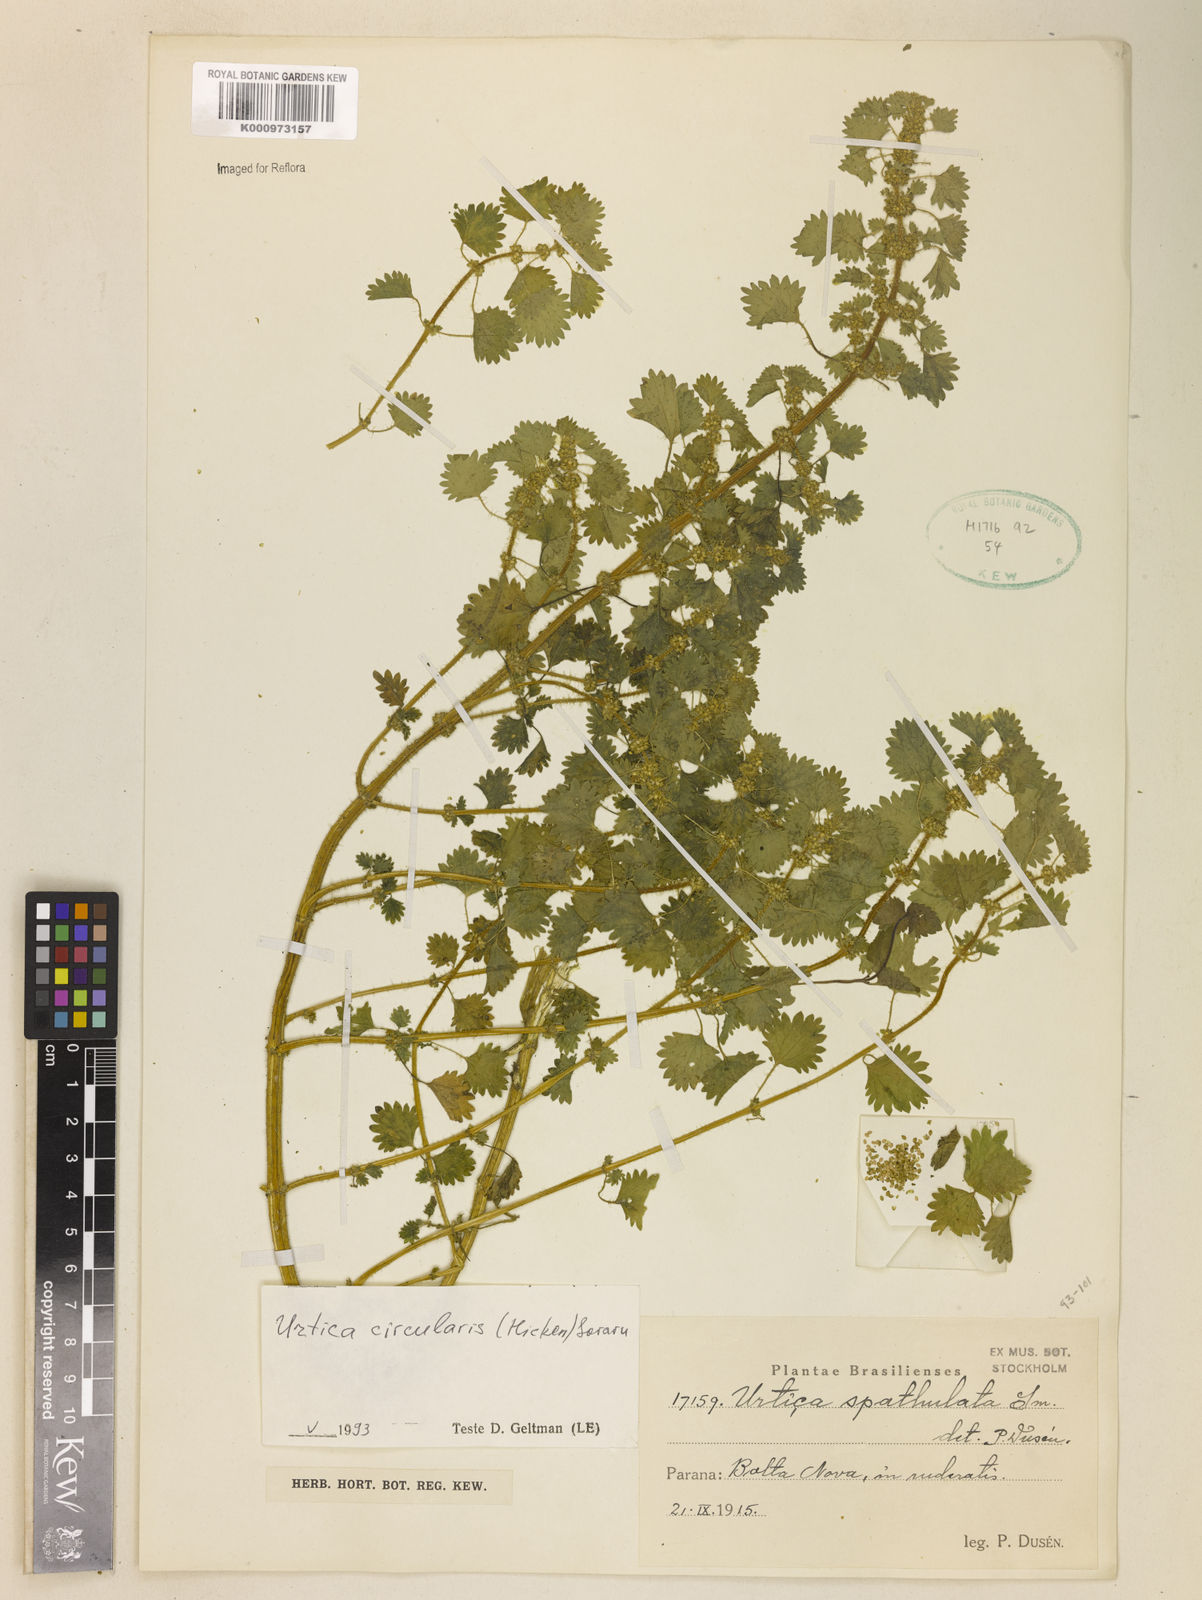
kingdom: Plantae
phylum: Tracheophyta
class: Magnoliopsida
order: Rosales
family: Urticaceae
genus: Urtica
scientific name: Urtica circularis
